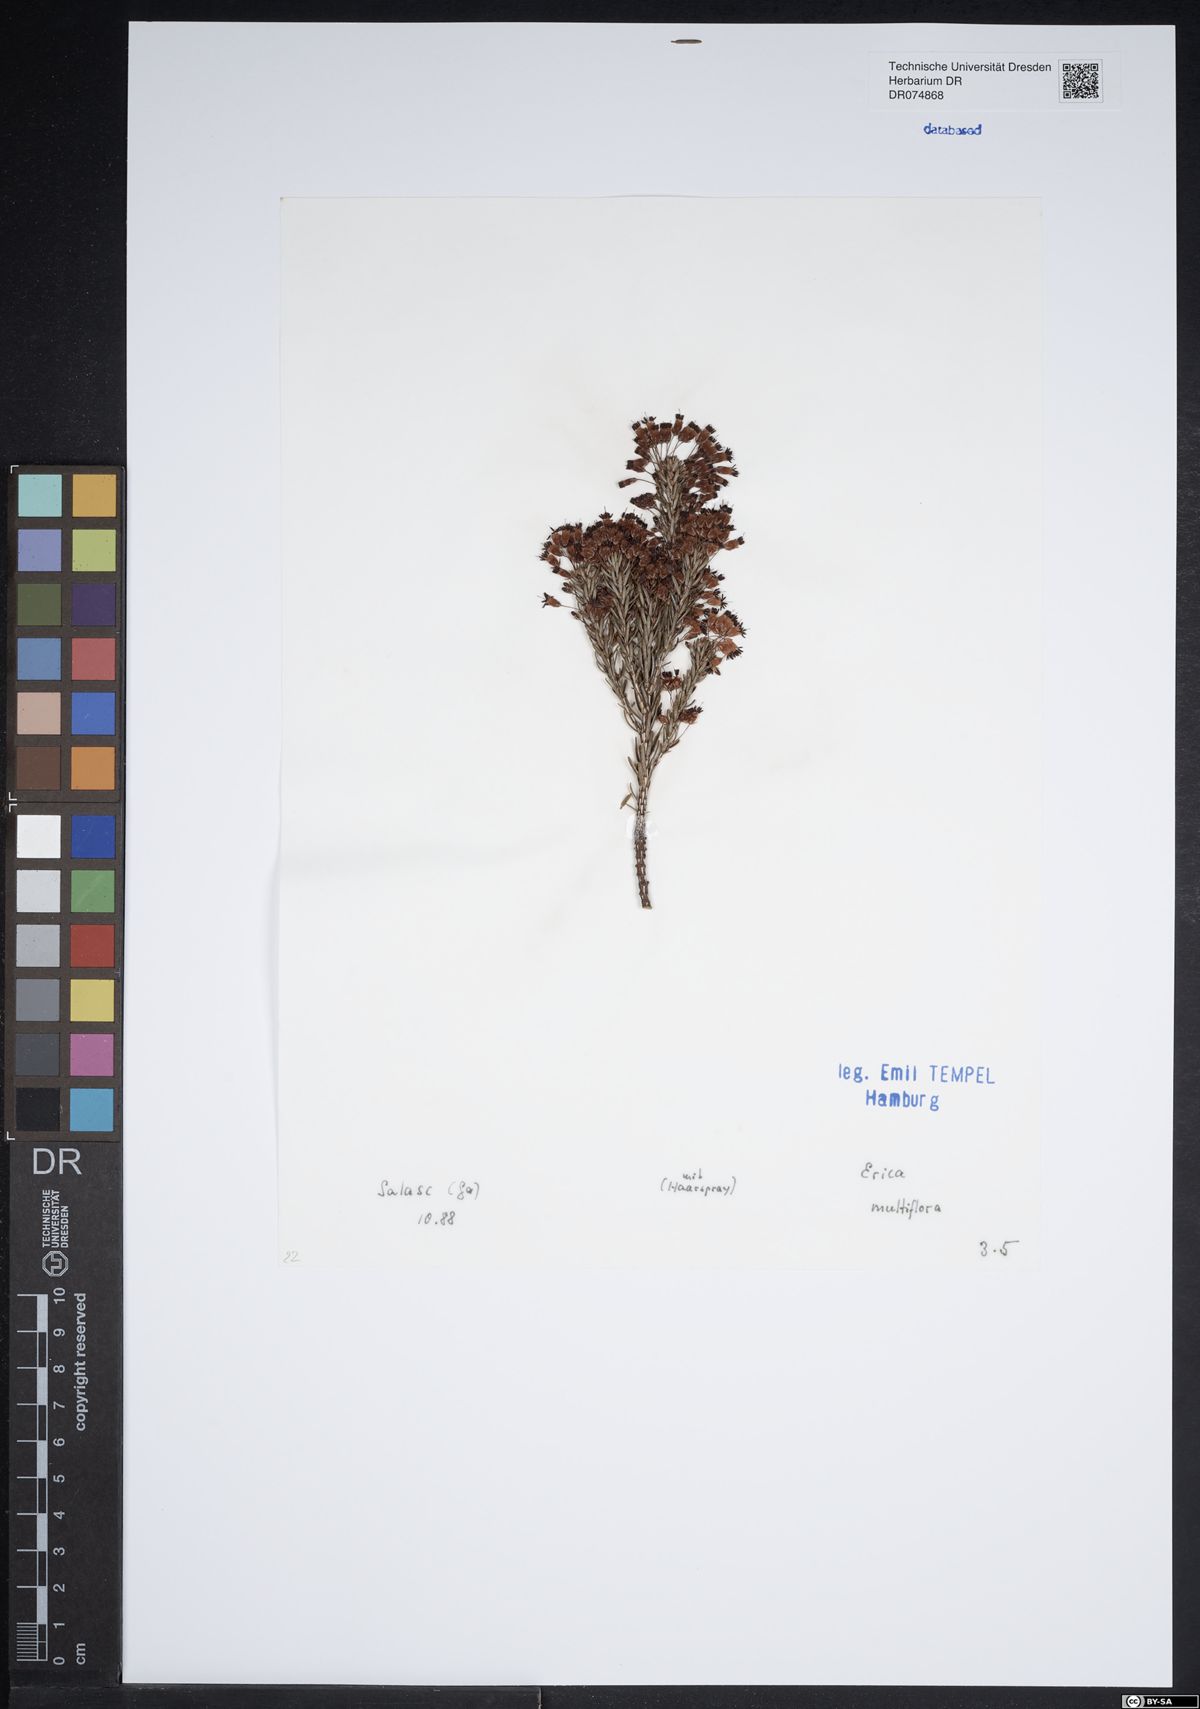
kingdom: Plantae
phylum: Tracheophyta
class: Magnoliopsida
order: Ericales
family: Ericaceae
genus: Erica
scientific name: Erica multiflora
